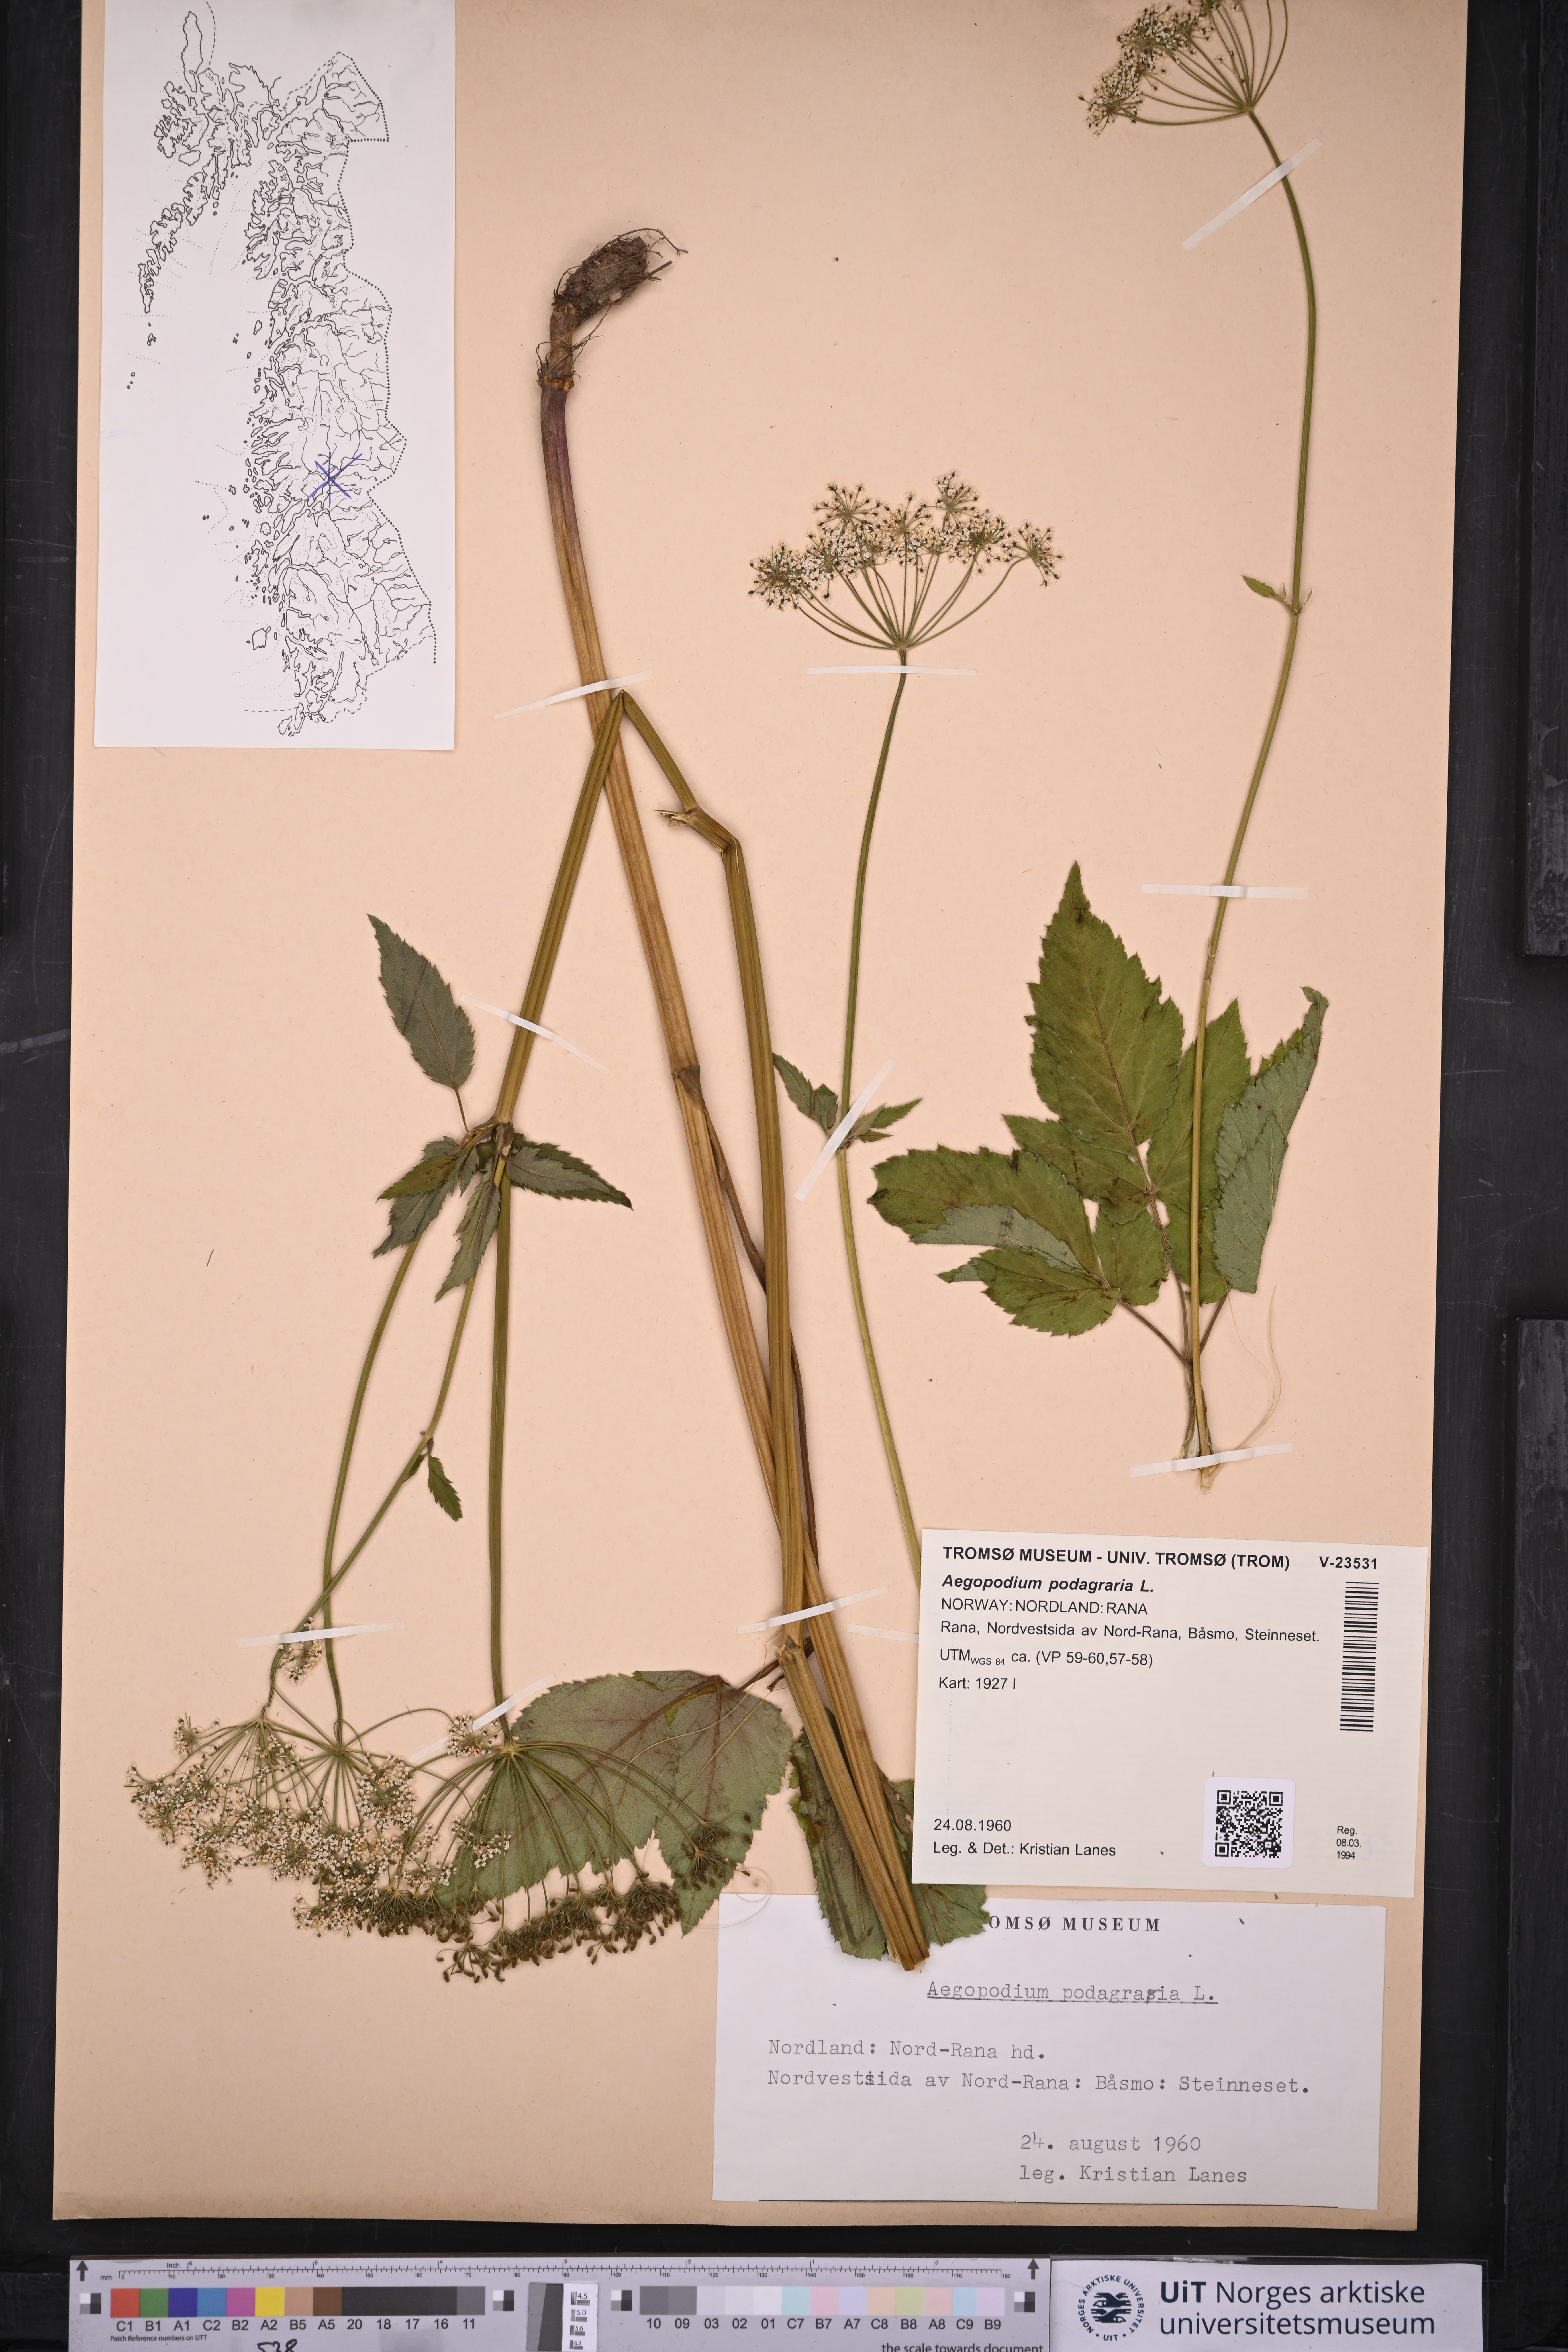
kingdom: Plantae
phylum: Tracheophyta
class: Magnoliopsida
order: Apiales
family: Apiaceae
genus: Aegopodium
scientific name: Aegopodium podagraria
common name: Ground-elder
